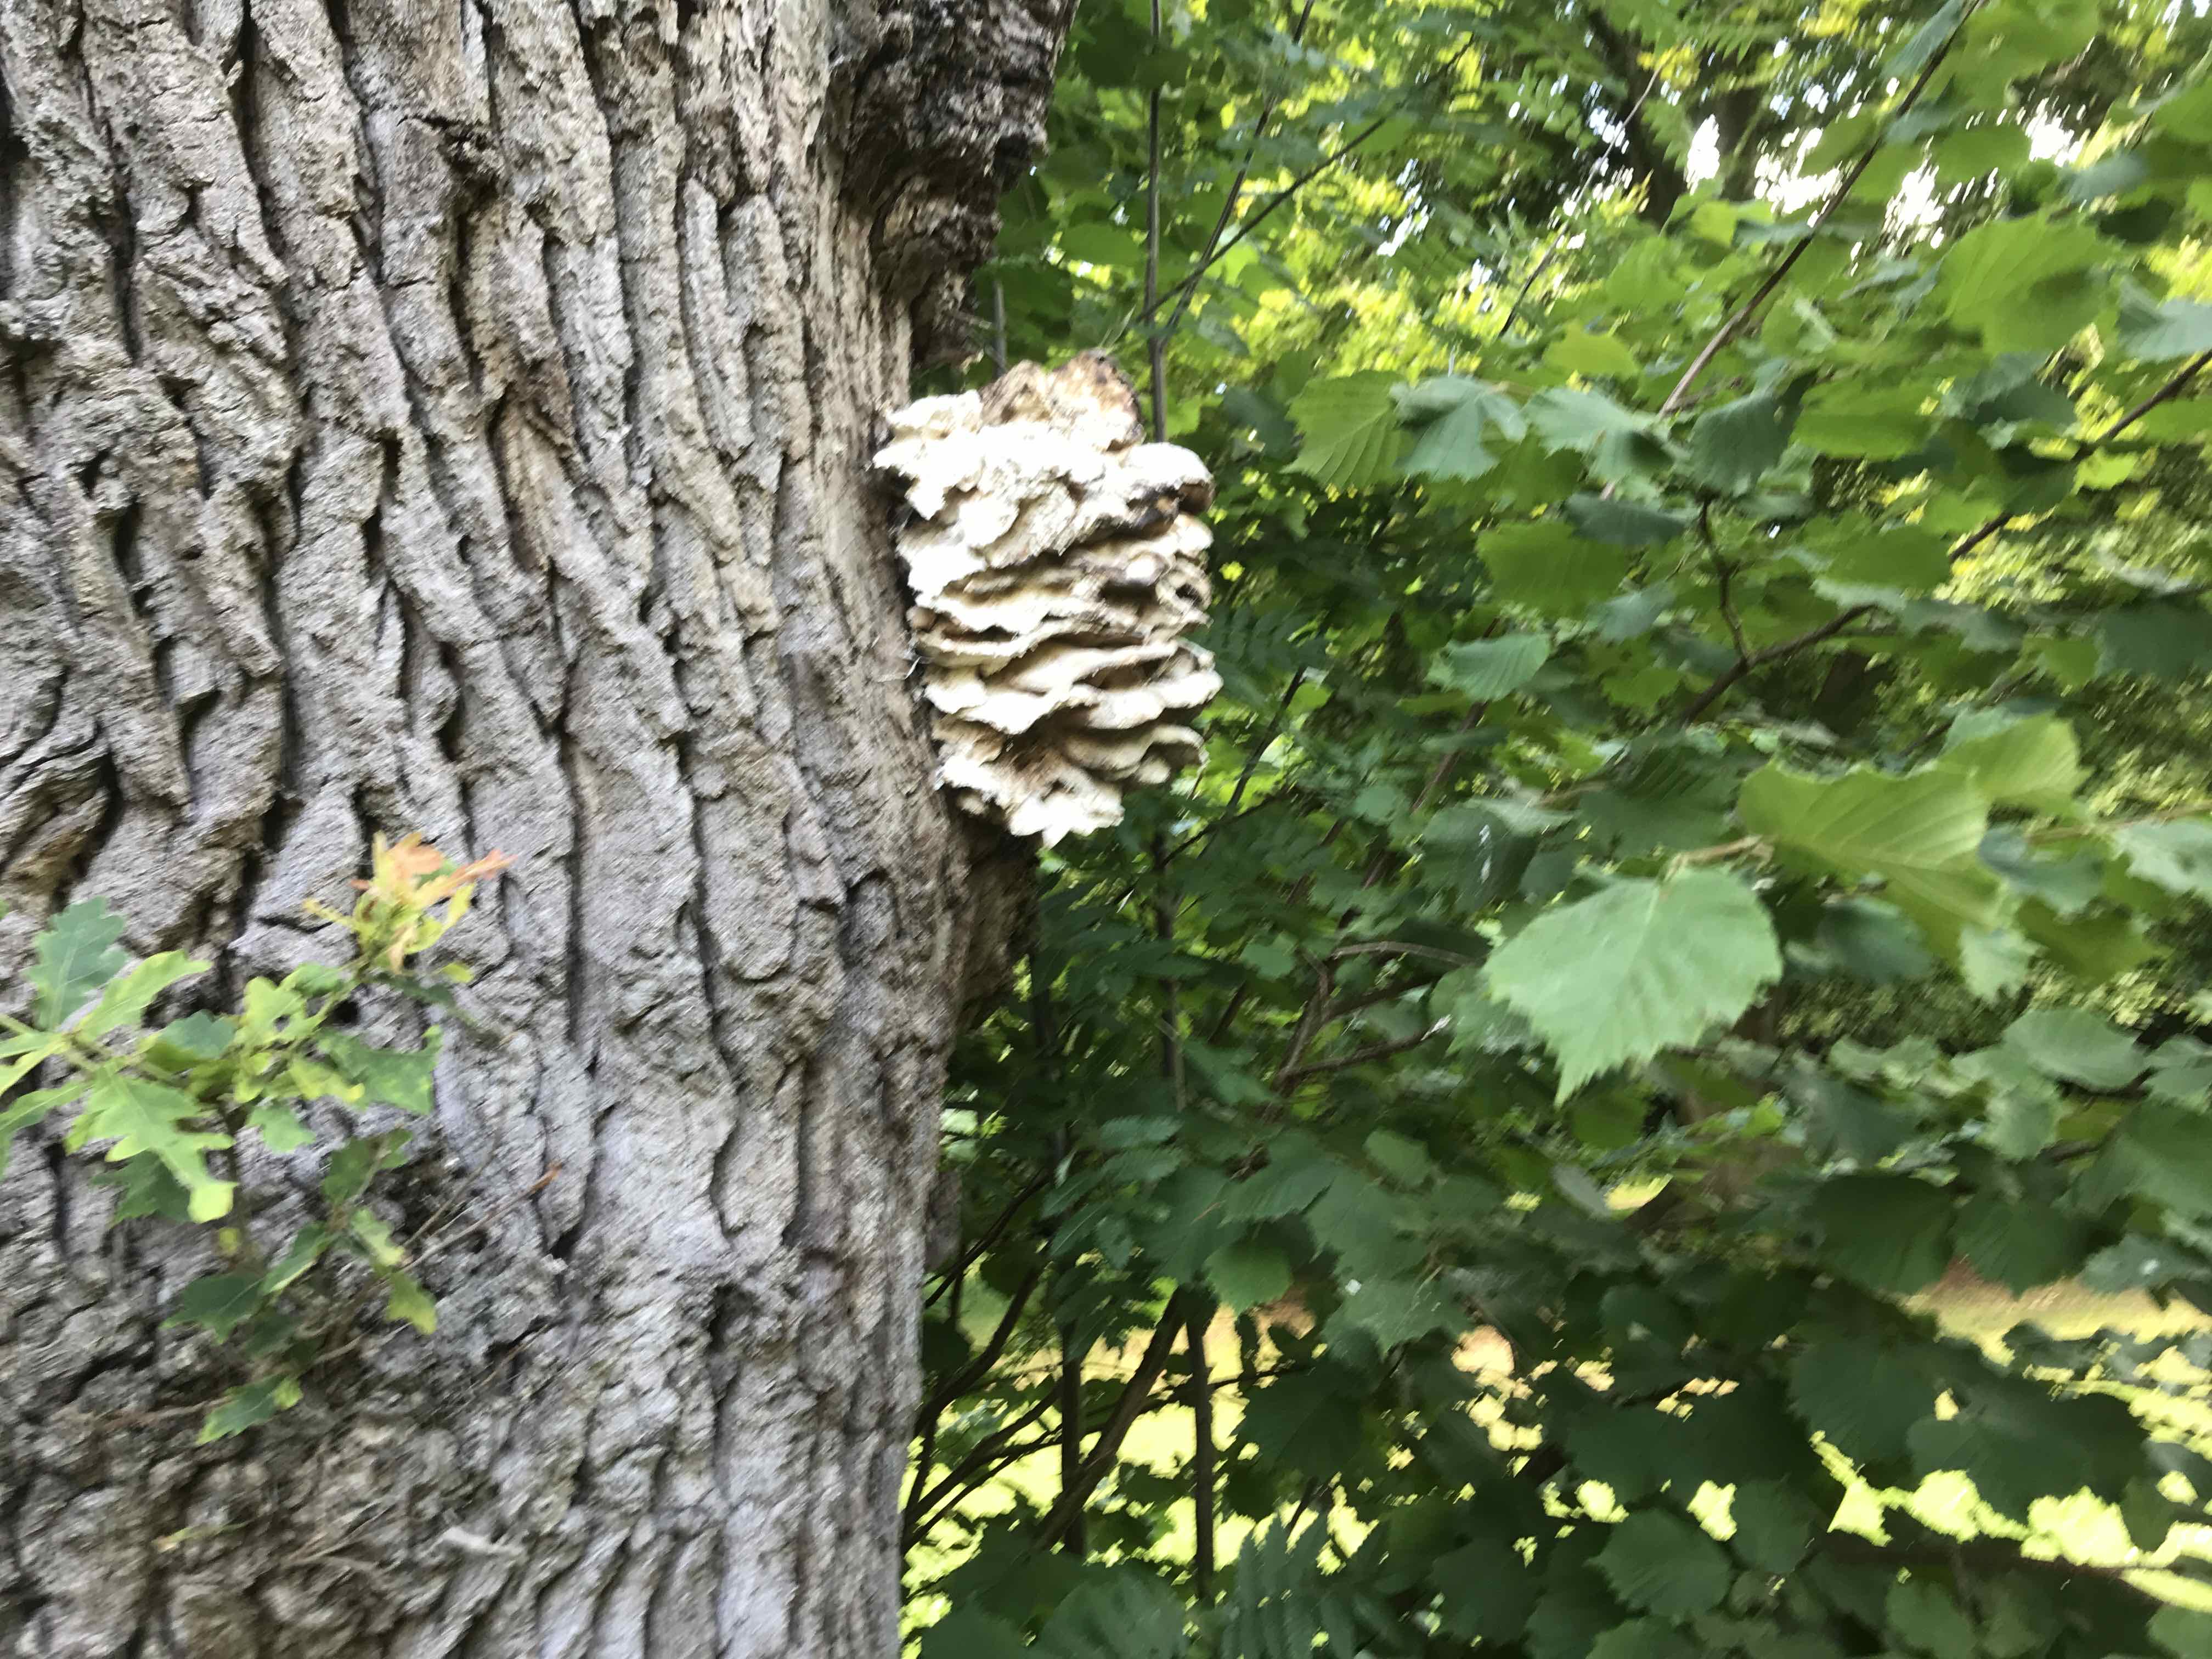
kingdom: Fungi
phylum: Basidiomycota
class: Agaricomycetes
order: Polyporales
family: Laetiporaceae
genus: Laetiporus
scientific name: Laetiporus sulphureus
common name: svovlporesvamp
